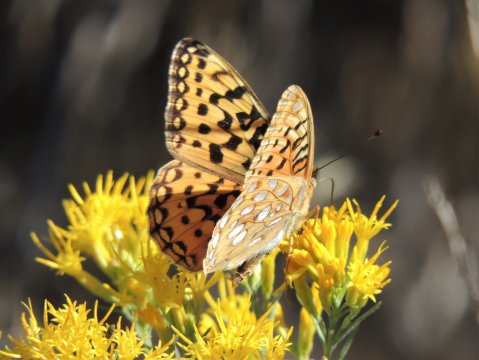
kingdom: Animalia
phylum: Arthropoda
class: Insecta
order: Lepidoptera
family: Nymphalidae
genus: Speyeria
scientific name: Speyeria coronis
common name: Coronis Fritillary
